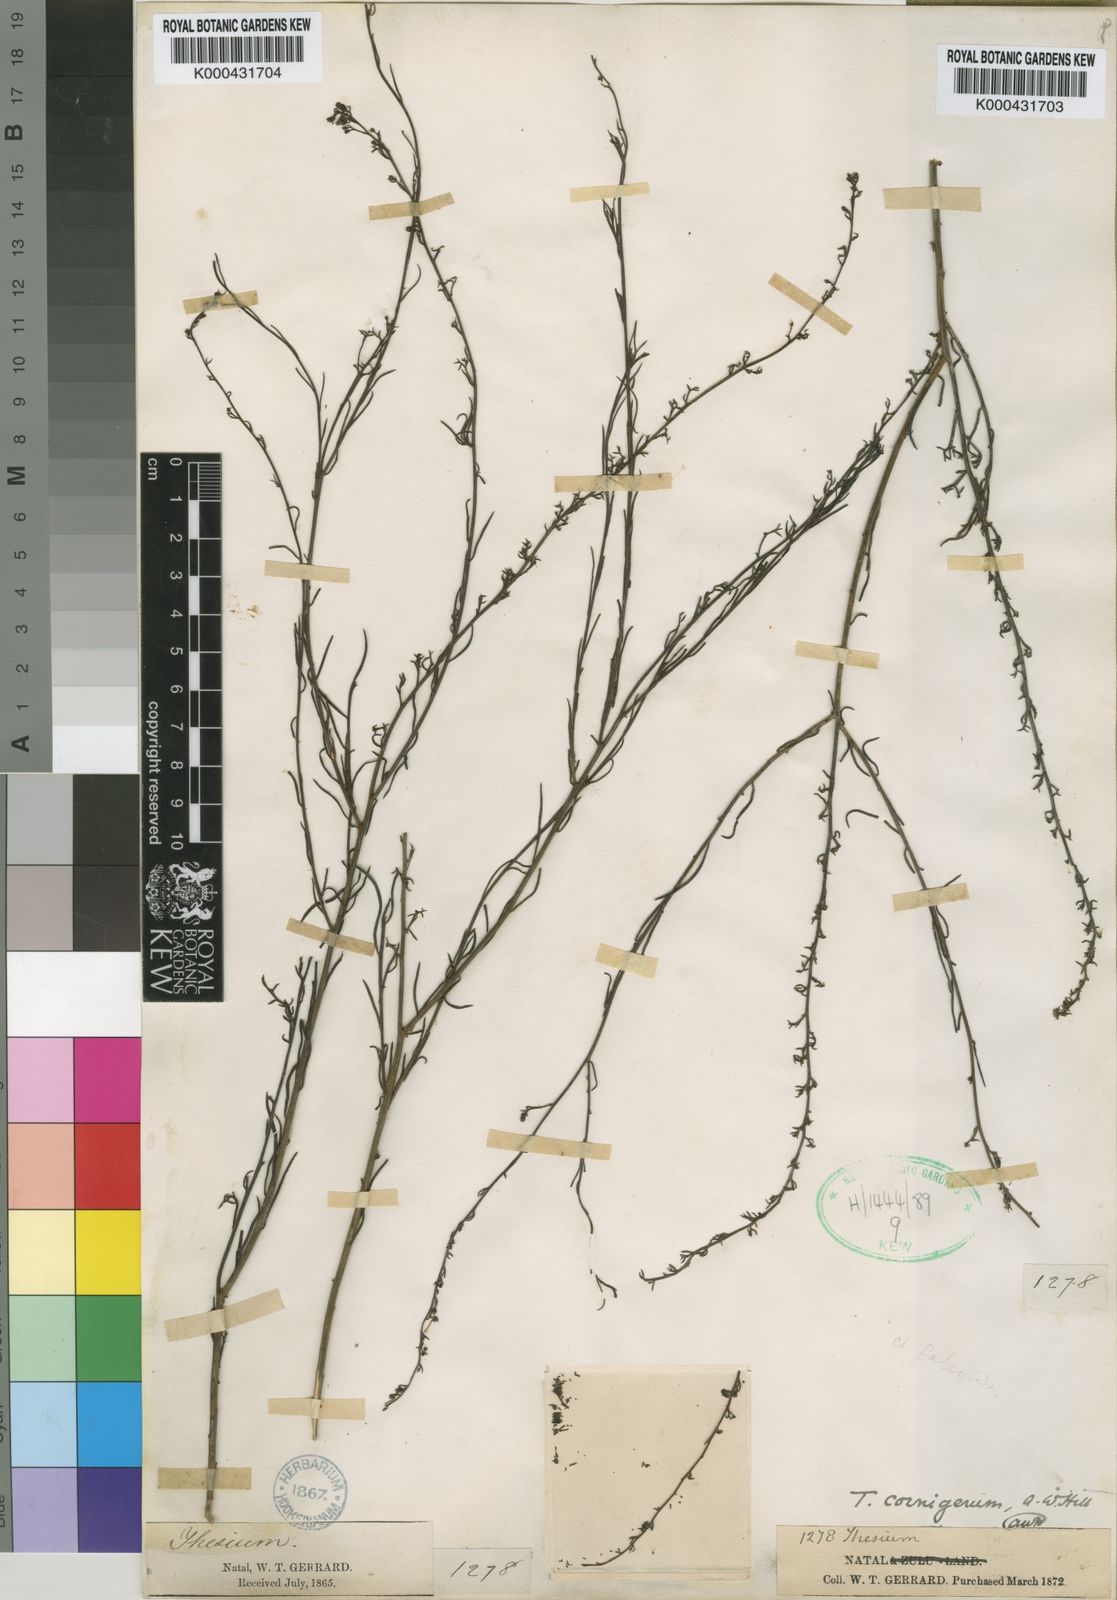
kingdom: Plantae
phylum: Tracheophyta
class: Magnoliopsida
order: Santalales
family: Thesiaceae
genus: Thesium
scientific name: Thesium cornigerum
